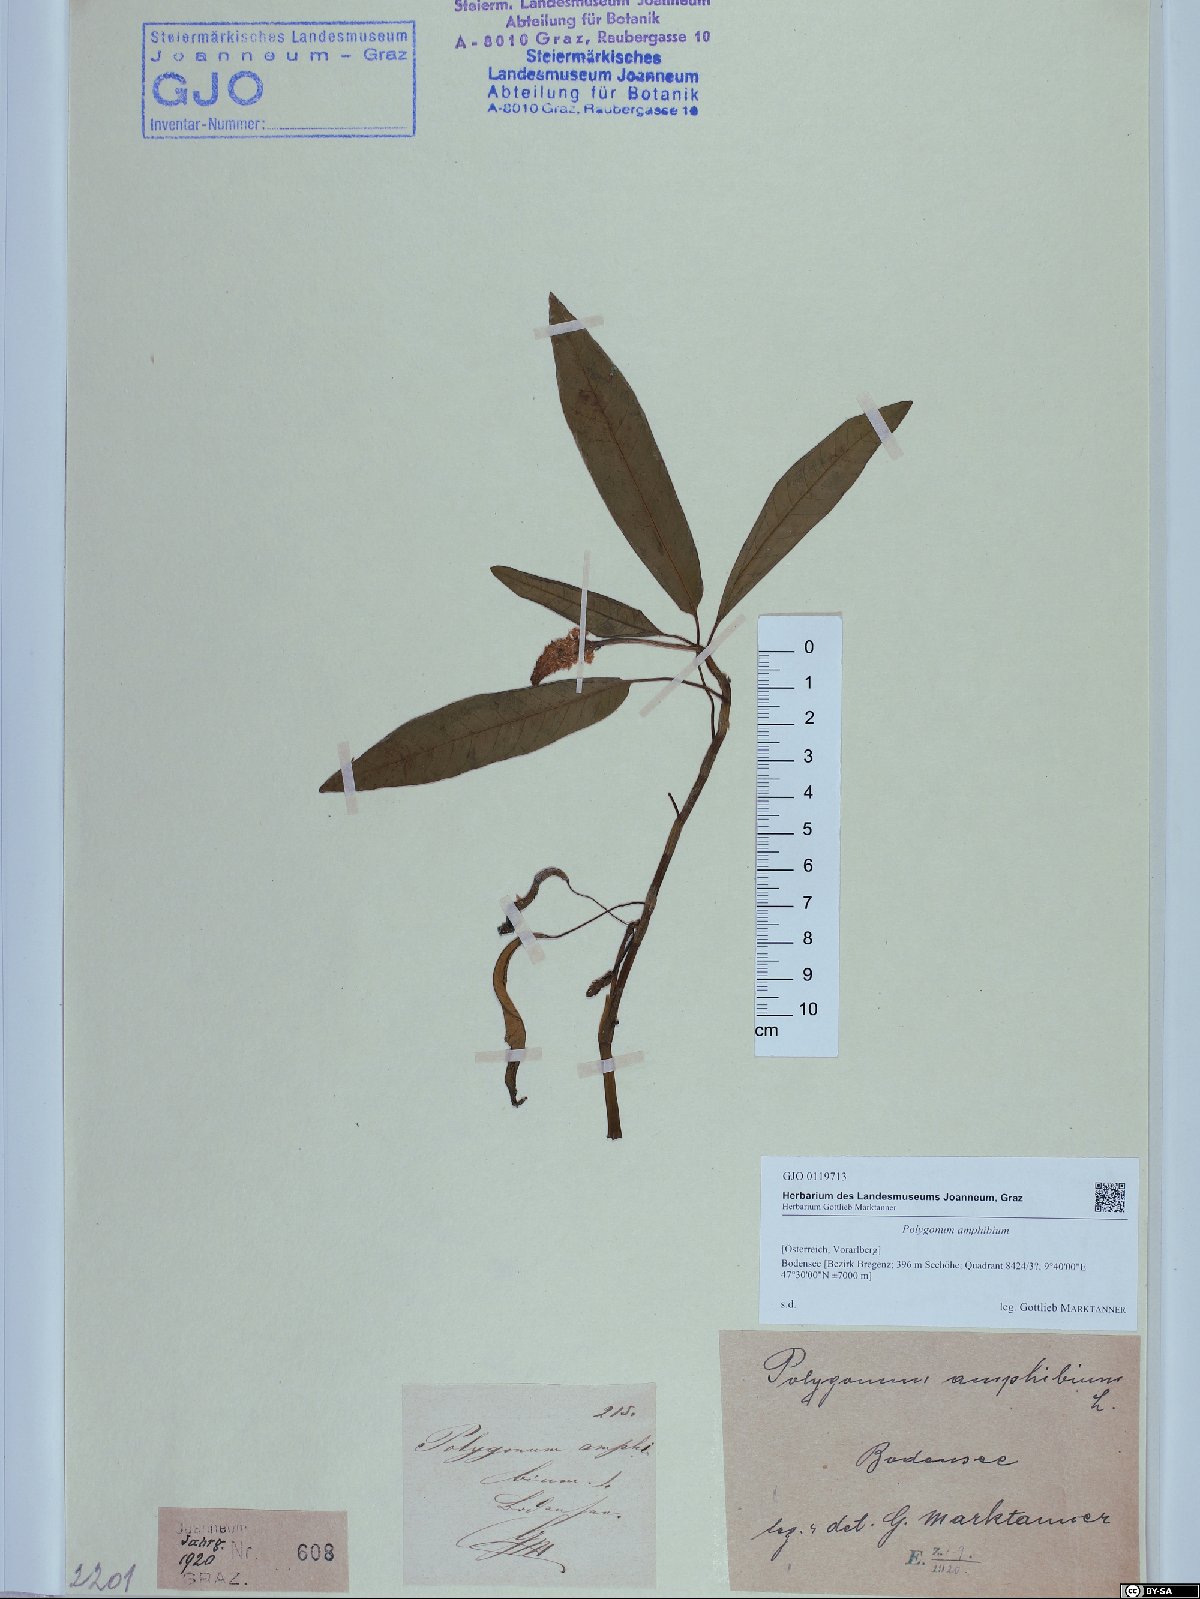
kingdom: Plantae
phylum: Tracheophyta
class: Magnoliopsida
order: Caryophyllales
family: Polygonaceae
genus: Persicaria
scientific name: Persicaria amphibia
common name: Amphibious bistort
